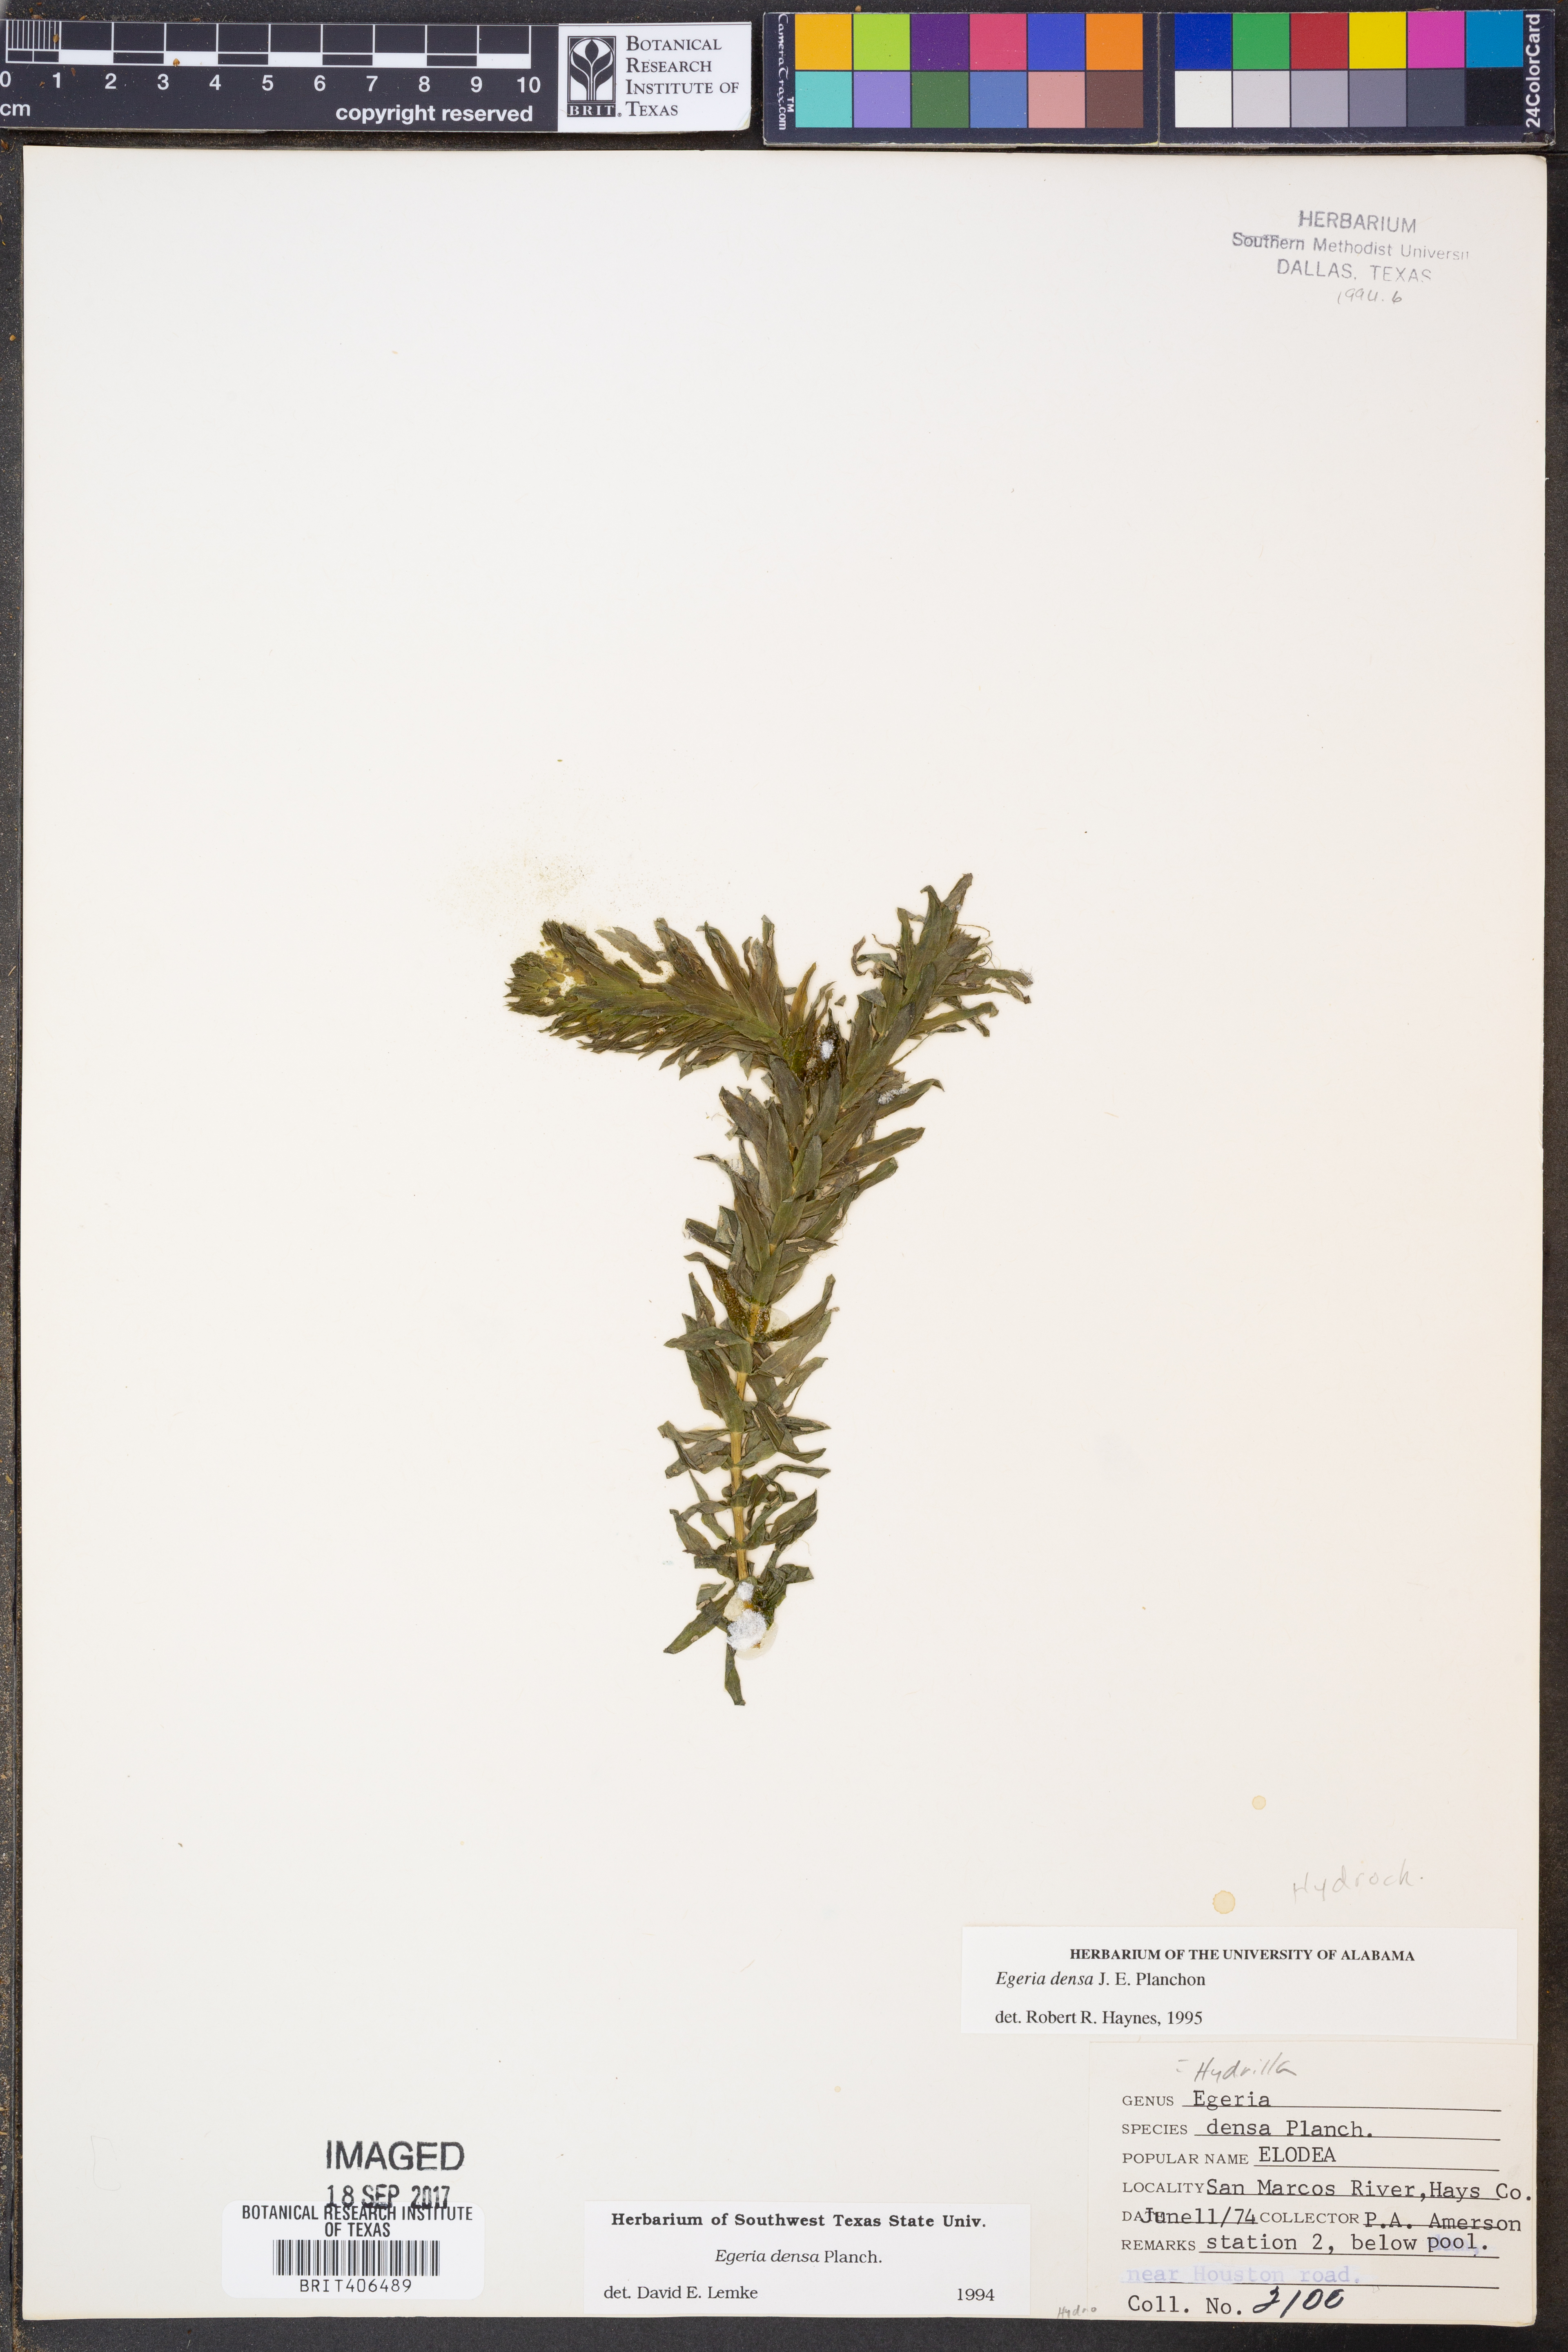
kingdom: Plantae
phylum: Tracheophyta
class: Liliopsida
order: Alismatales
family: Hydrocharitaceae
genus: Elodea
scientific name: Elodea densa
